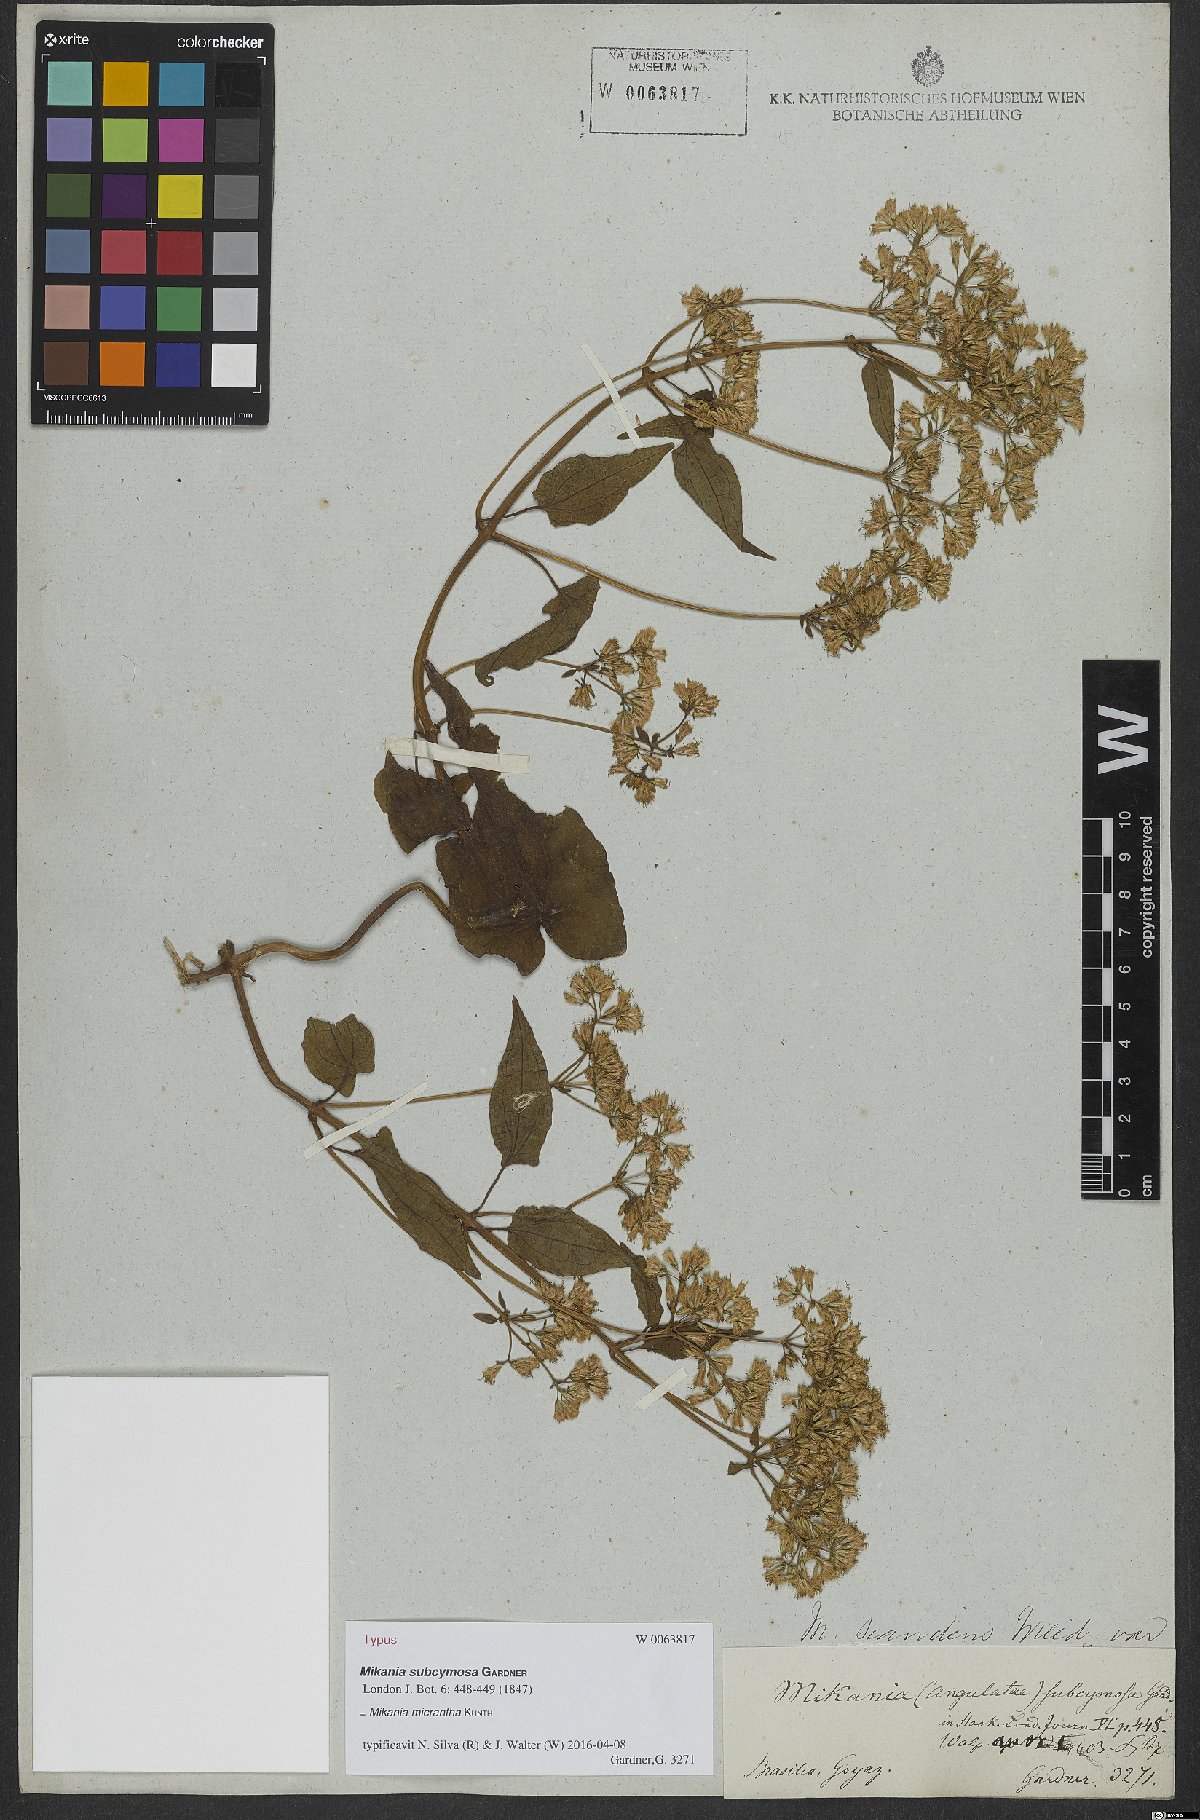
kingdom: Plantae
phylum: Tracheophyta
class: Magnoliopsida
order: Asterales
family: Asteraceae
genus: Mikania
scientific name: Mikania micrantha
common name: Mile-a-minute
